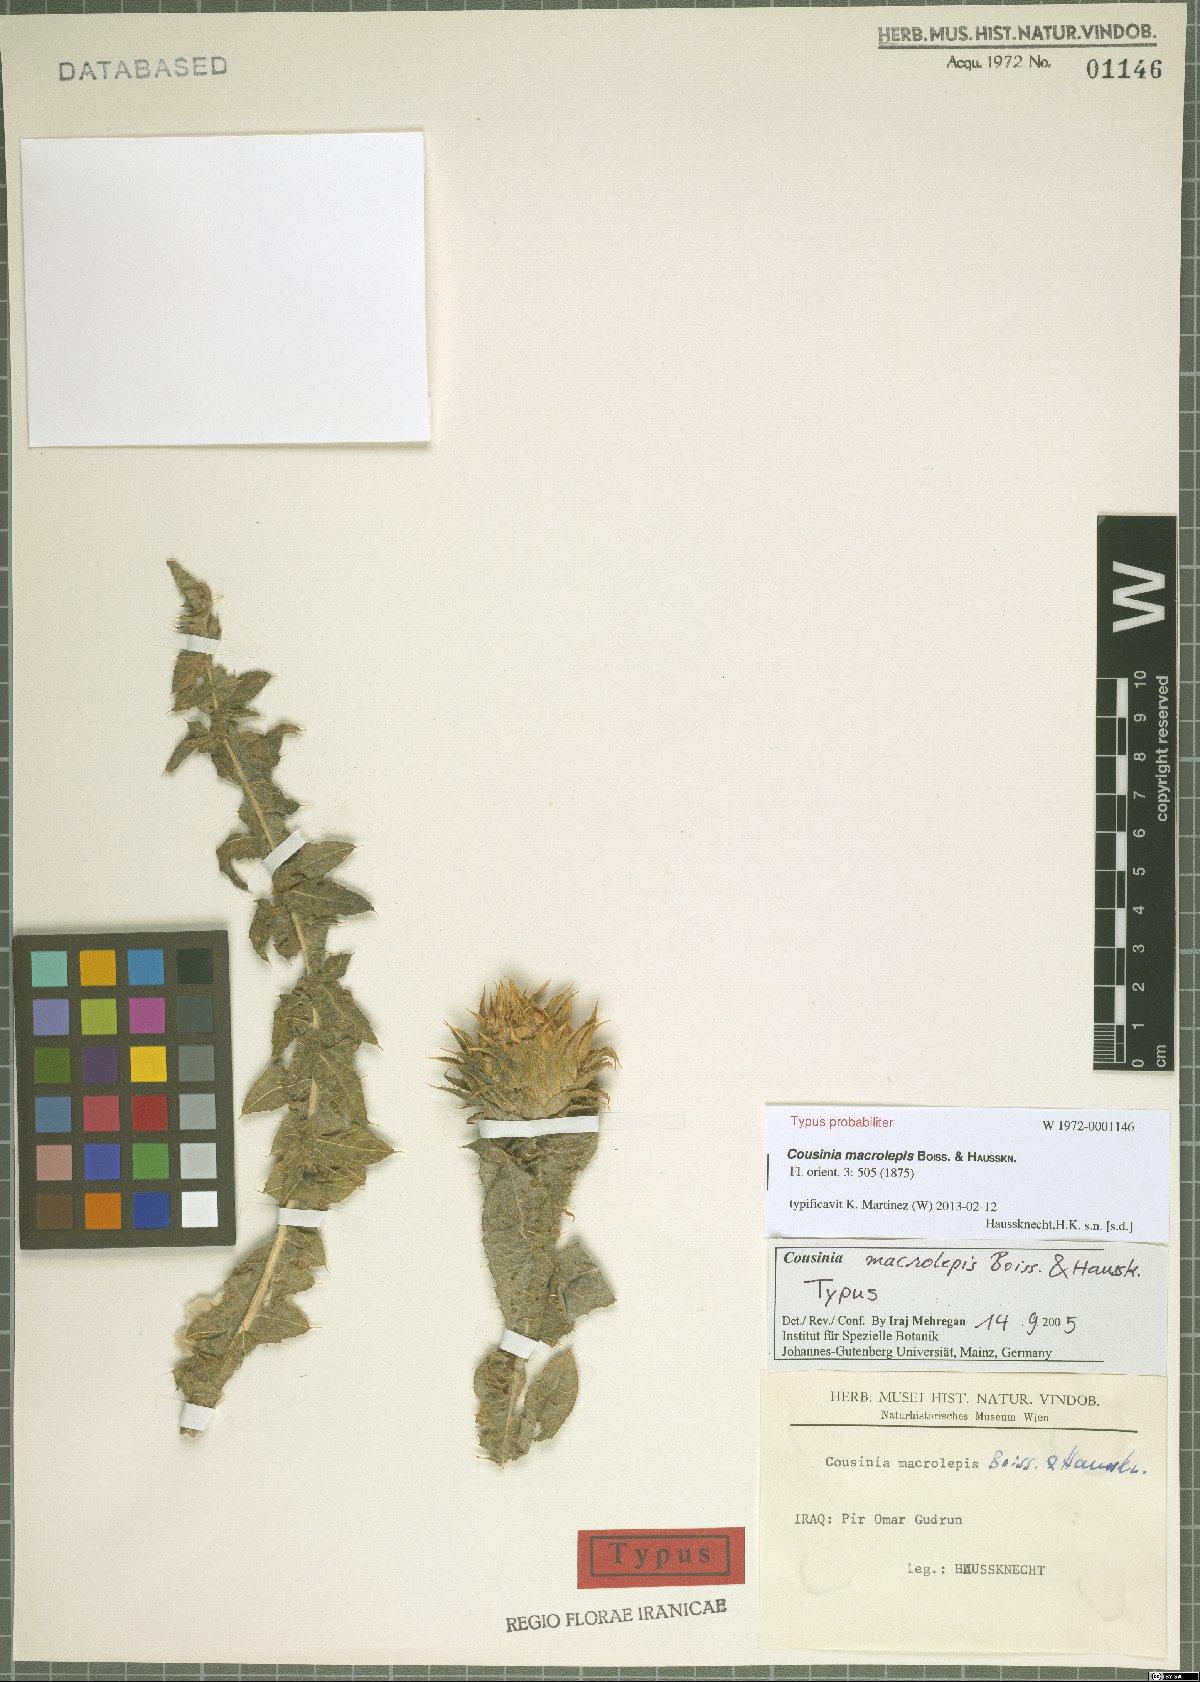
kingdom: Plantae
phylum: Tracheophyta
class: Magnoliopsida
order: Asterales
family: Asteraceae
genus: Cousinia
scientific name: Cousinia macrolepis
